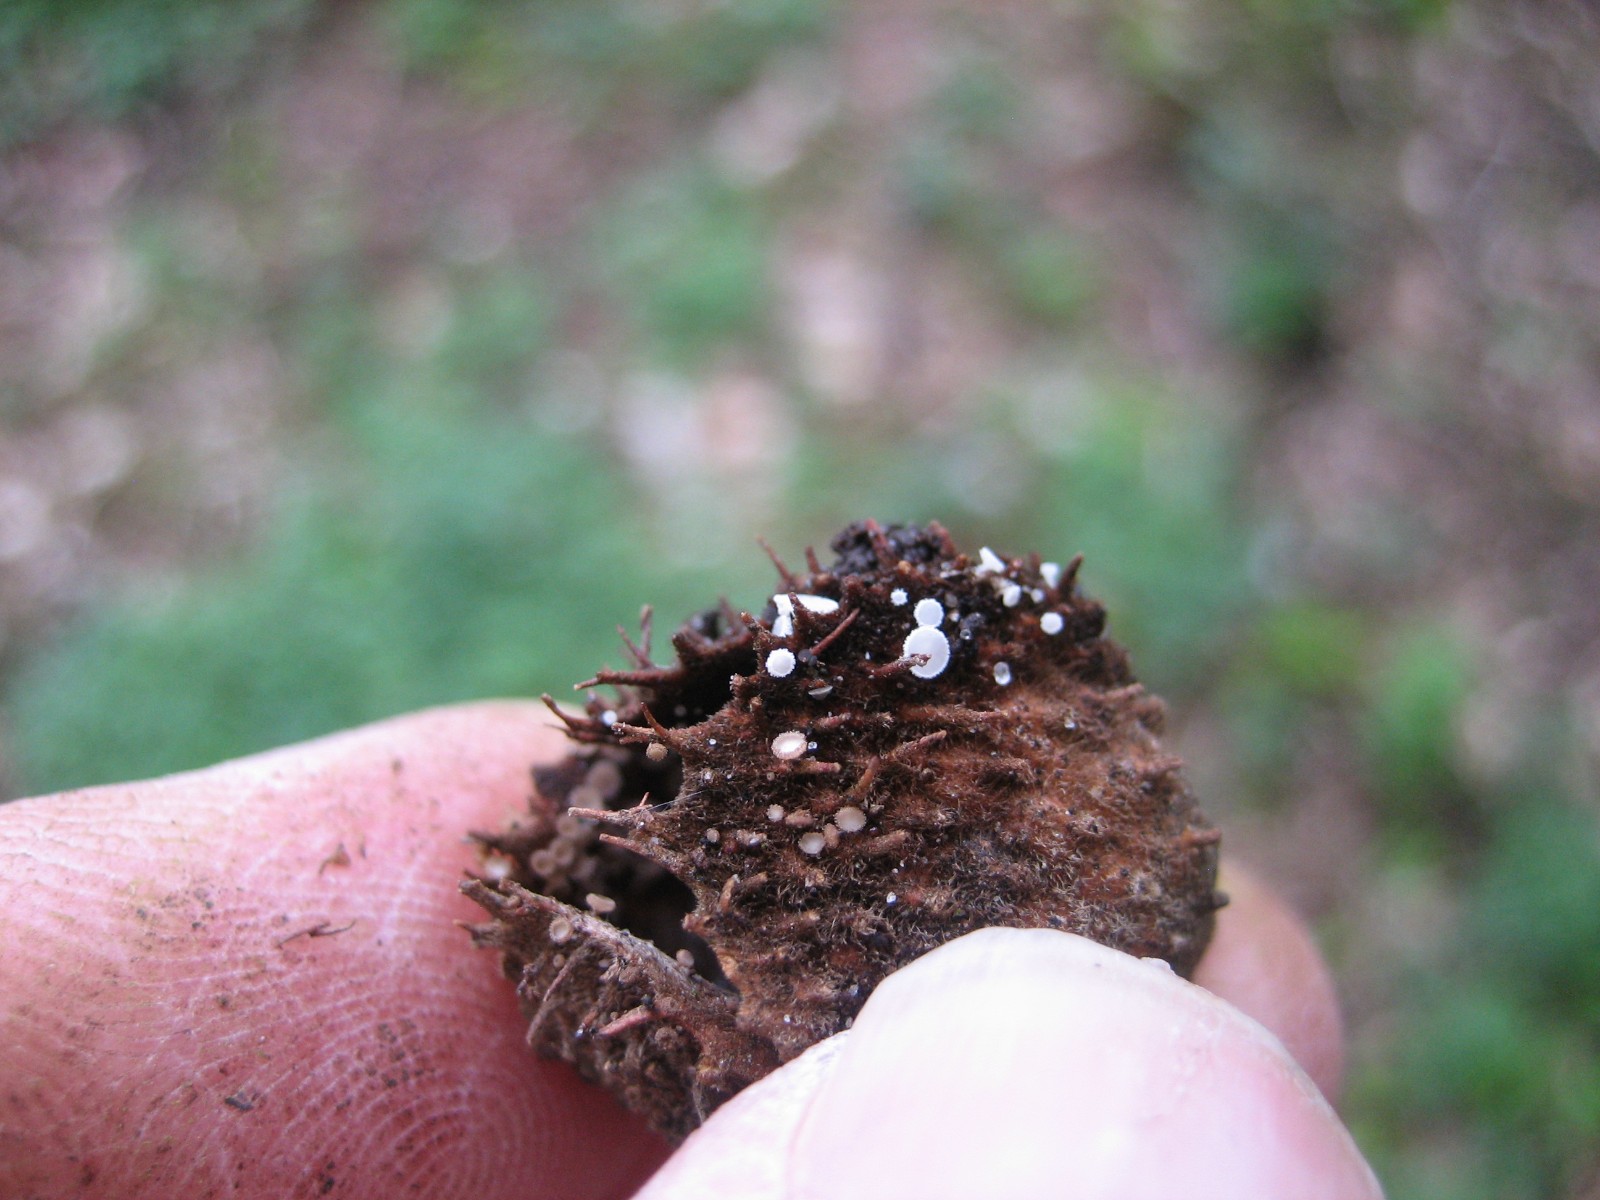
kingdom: Fungi
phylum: Ascomycota
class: Leotiomycetes
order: Helotiales
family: Lachnaceae
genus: Lachnum
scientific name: Lachnum virgineum
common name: jomfru-frynseskive
